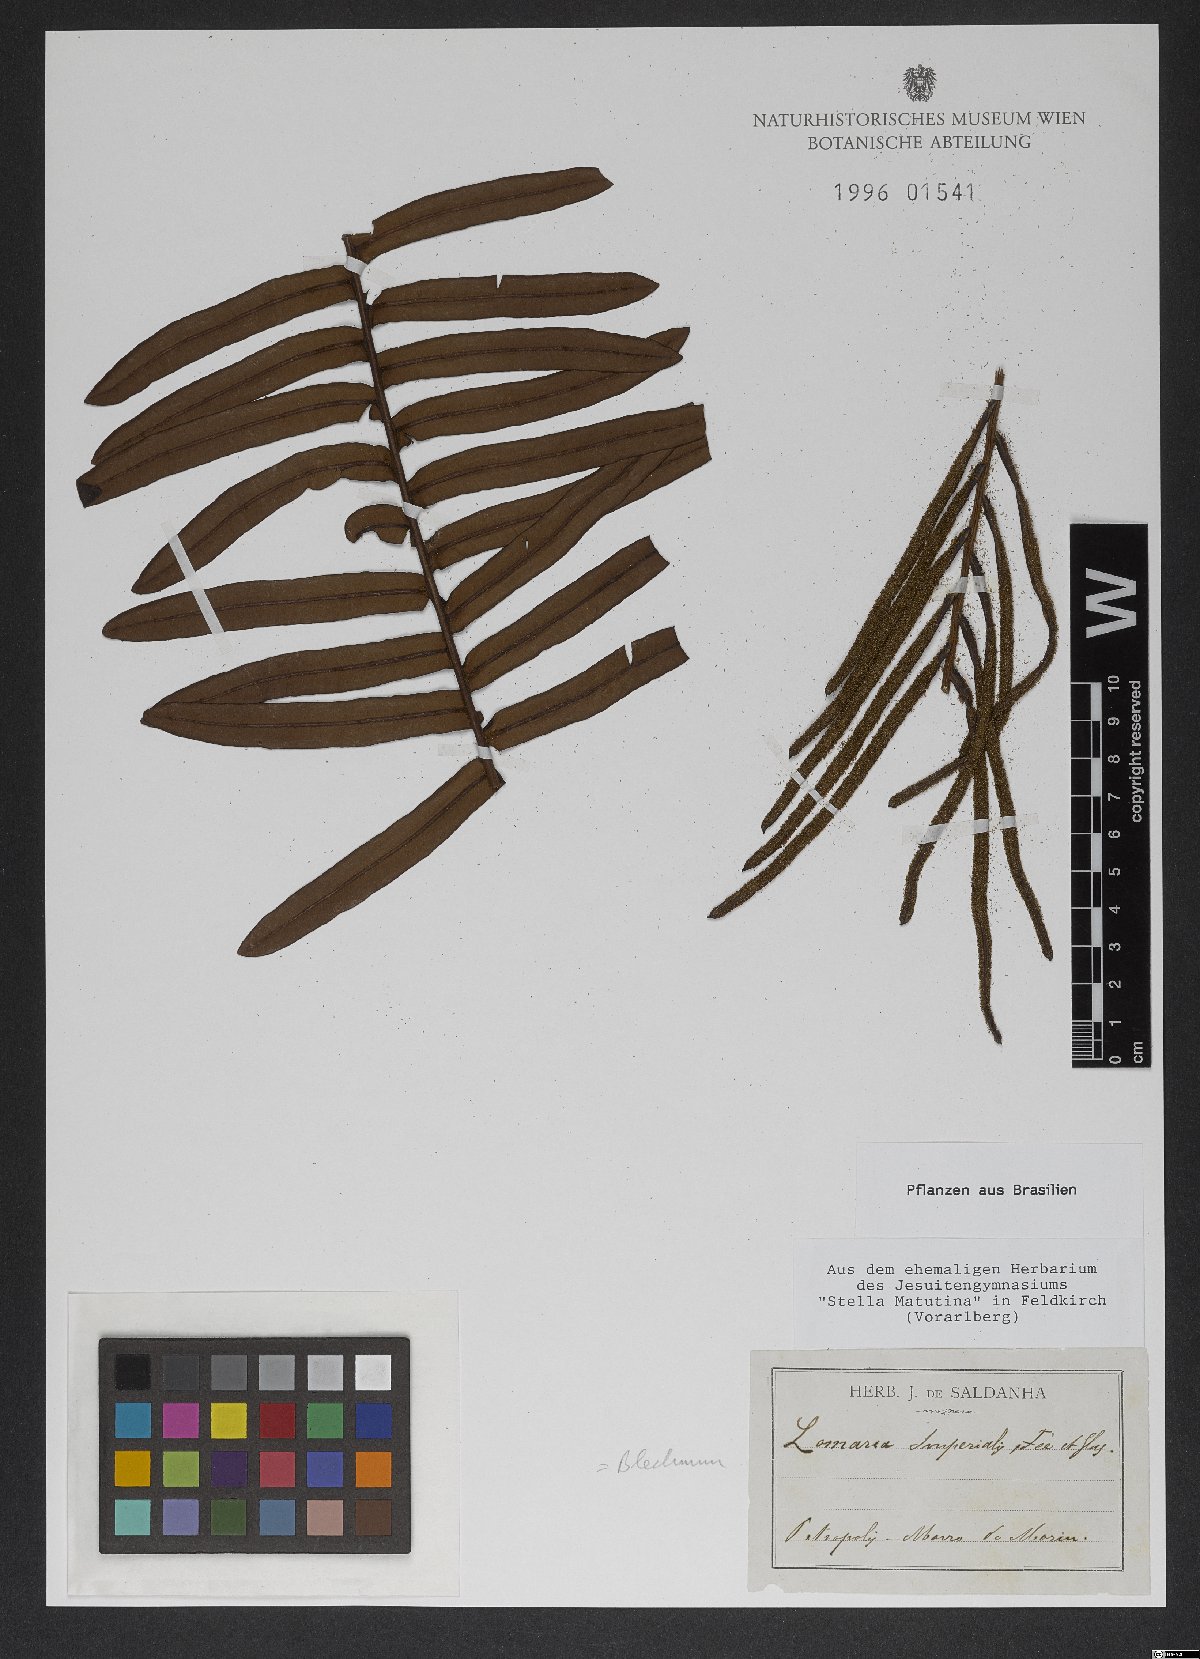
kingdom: Plantae
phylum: Tracheophyta
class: Polypodiopsida
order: Polypodiales
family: Blechnaceae
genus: Blechnum
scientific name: Blechnum
